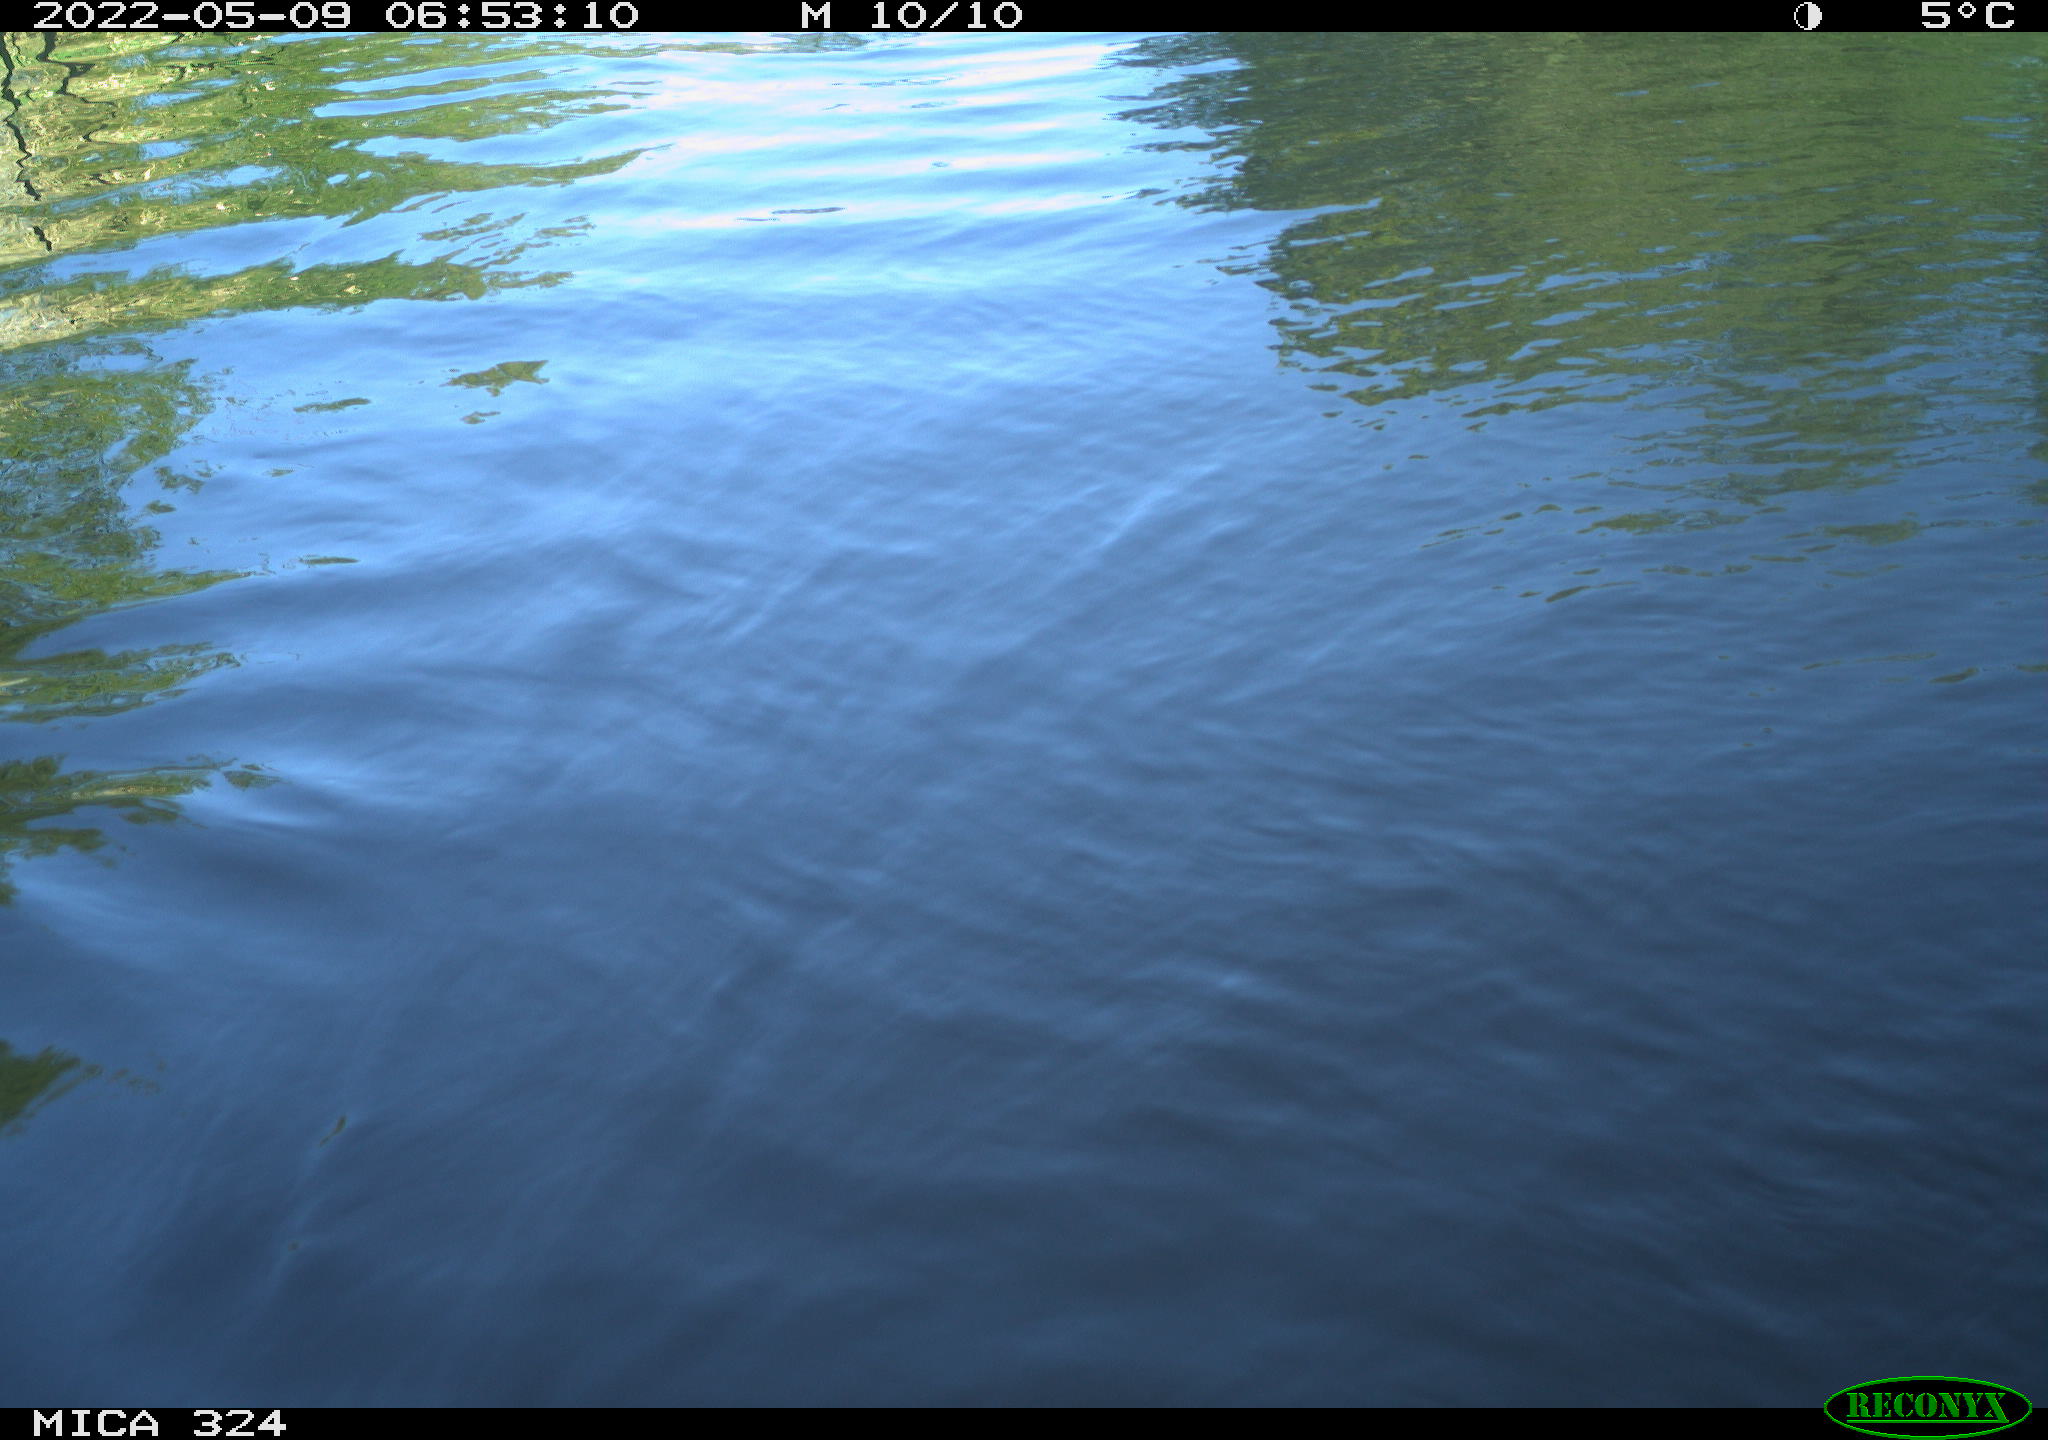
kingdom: Animalia
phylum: Chordata
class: Aves
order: Anseriformes
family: Anatidae
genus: Anas
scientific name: Anas
